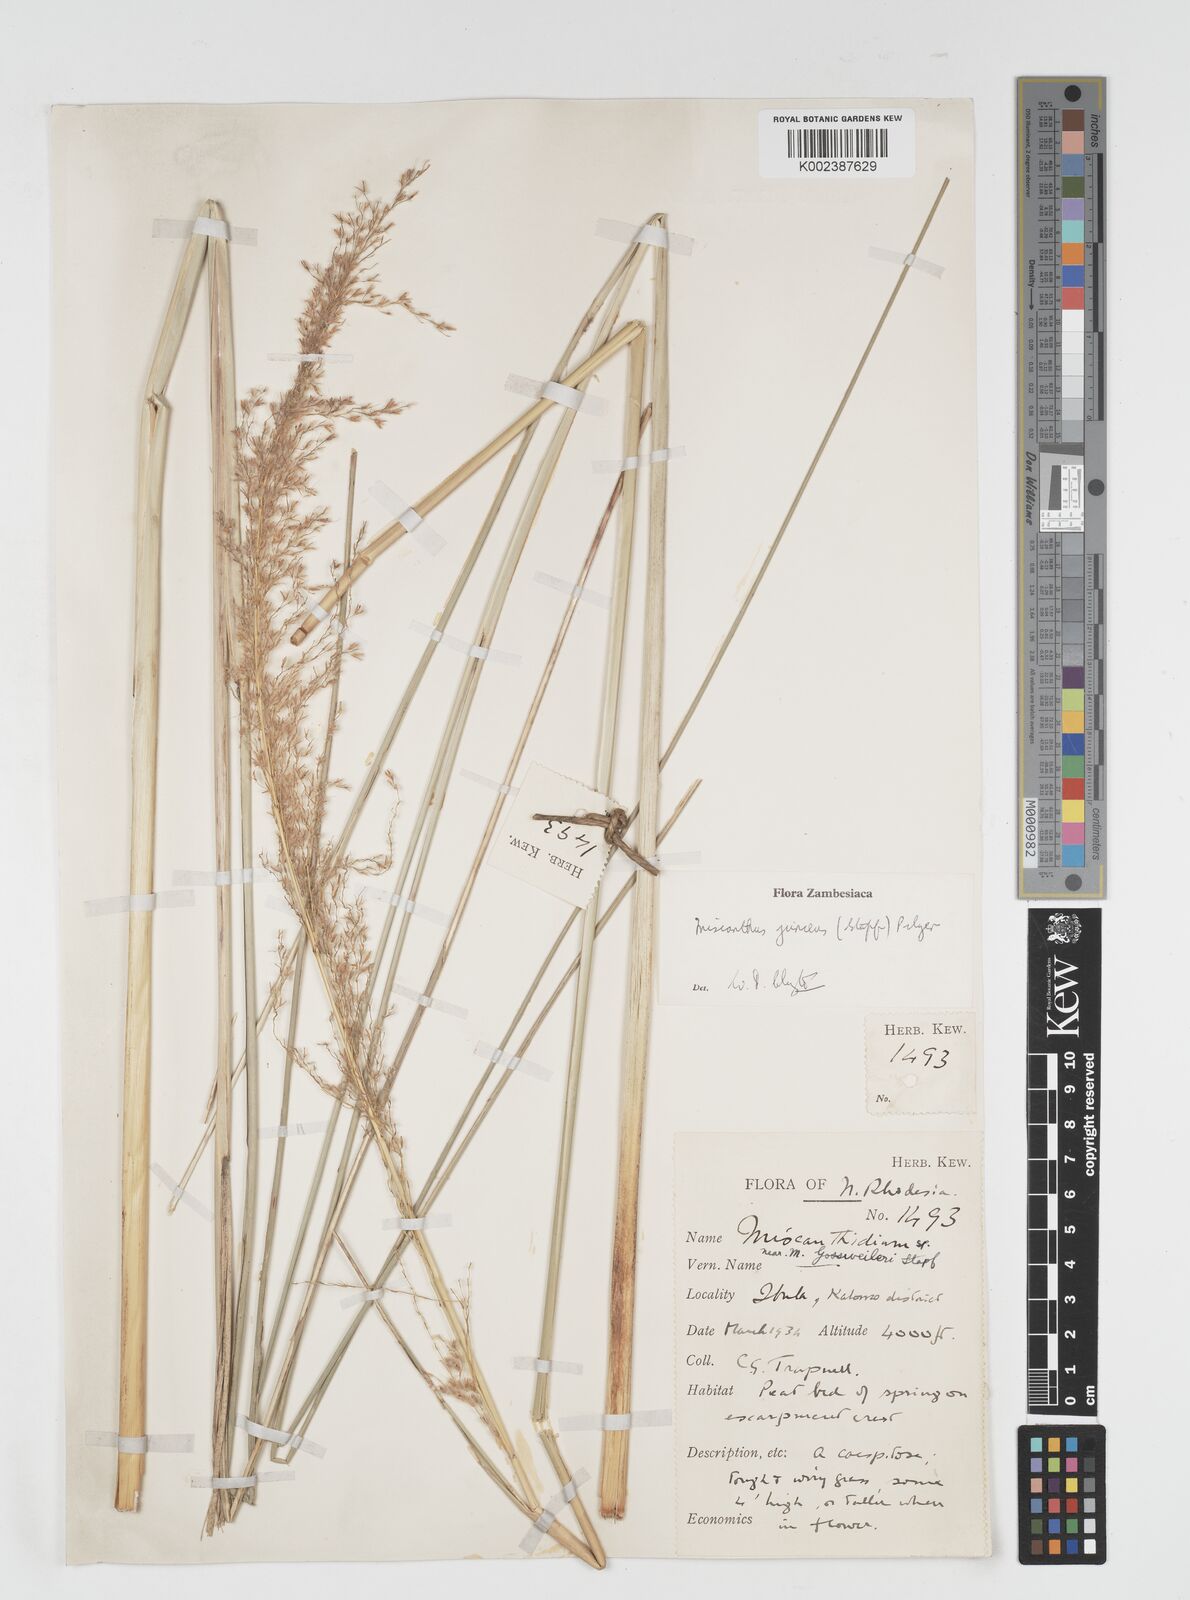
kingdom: Plantae
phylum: Tracheophyta
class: Liliopsida
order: Poales
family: Poaceae
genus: Miscanthidium
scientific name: Miscanthidium junceum
